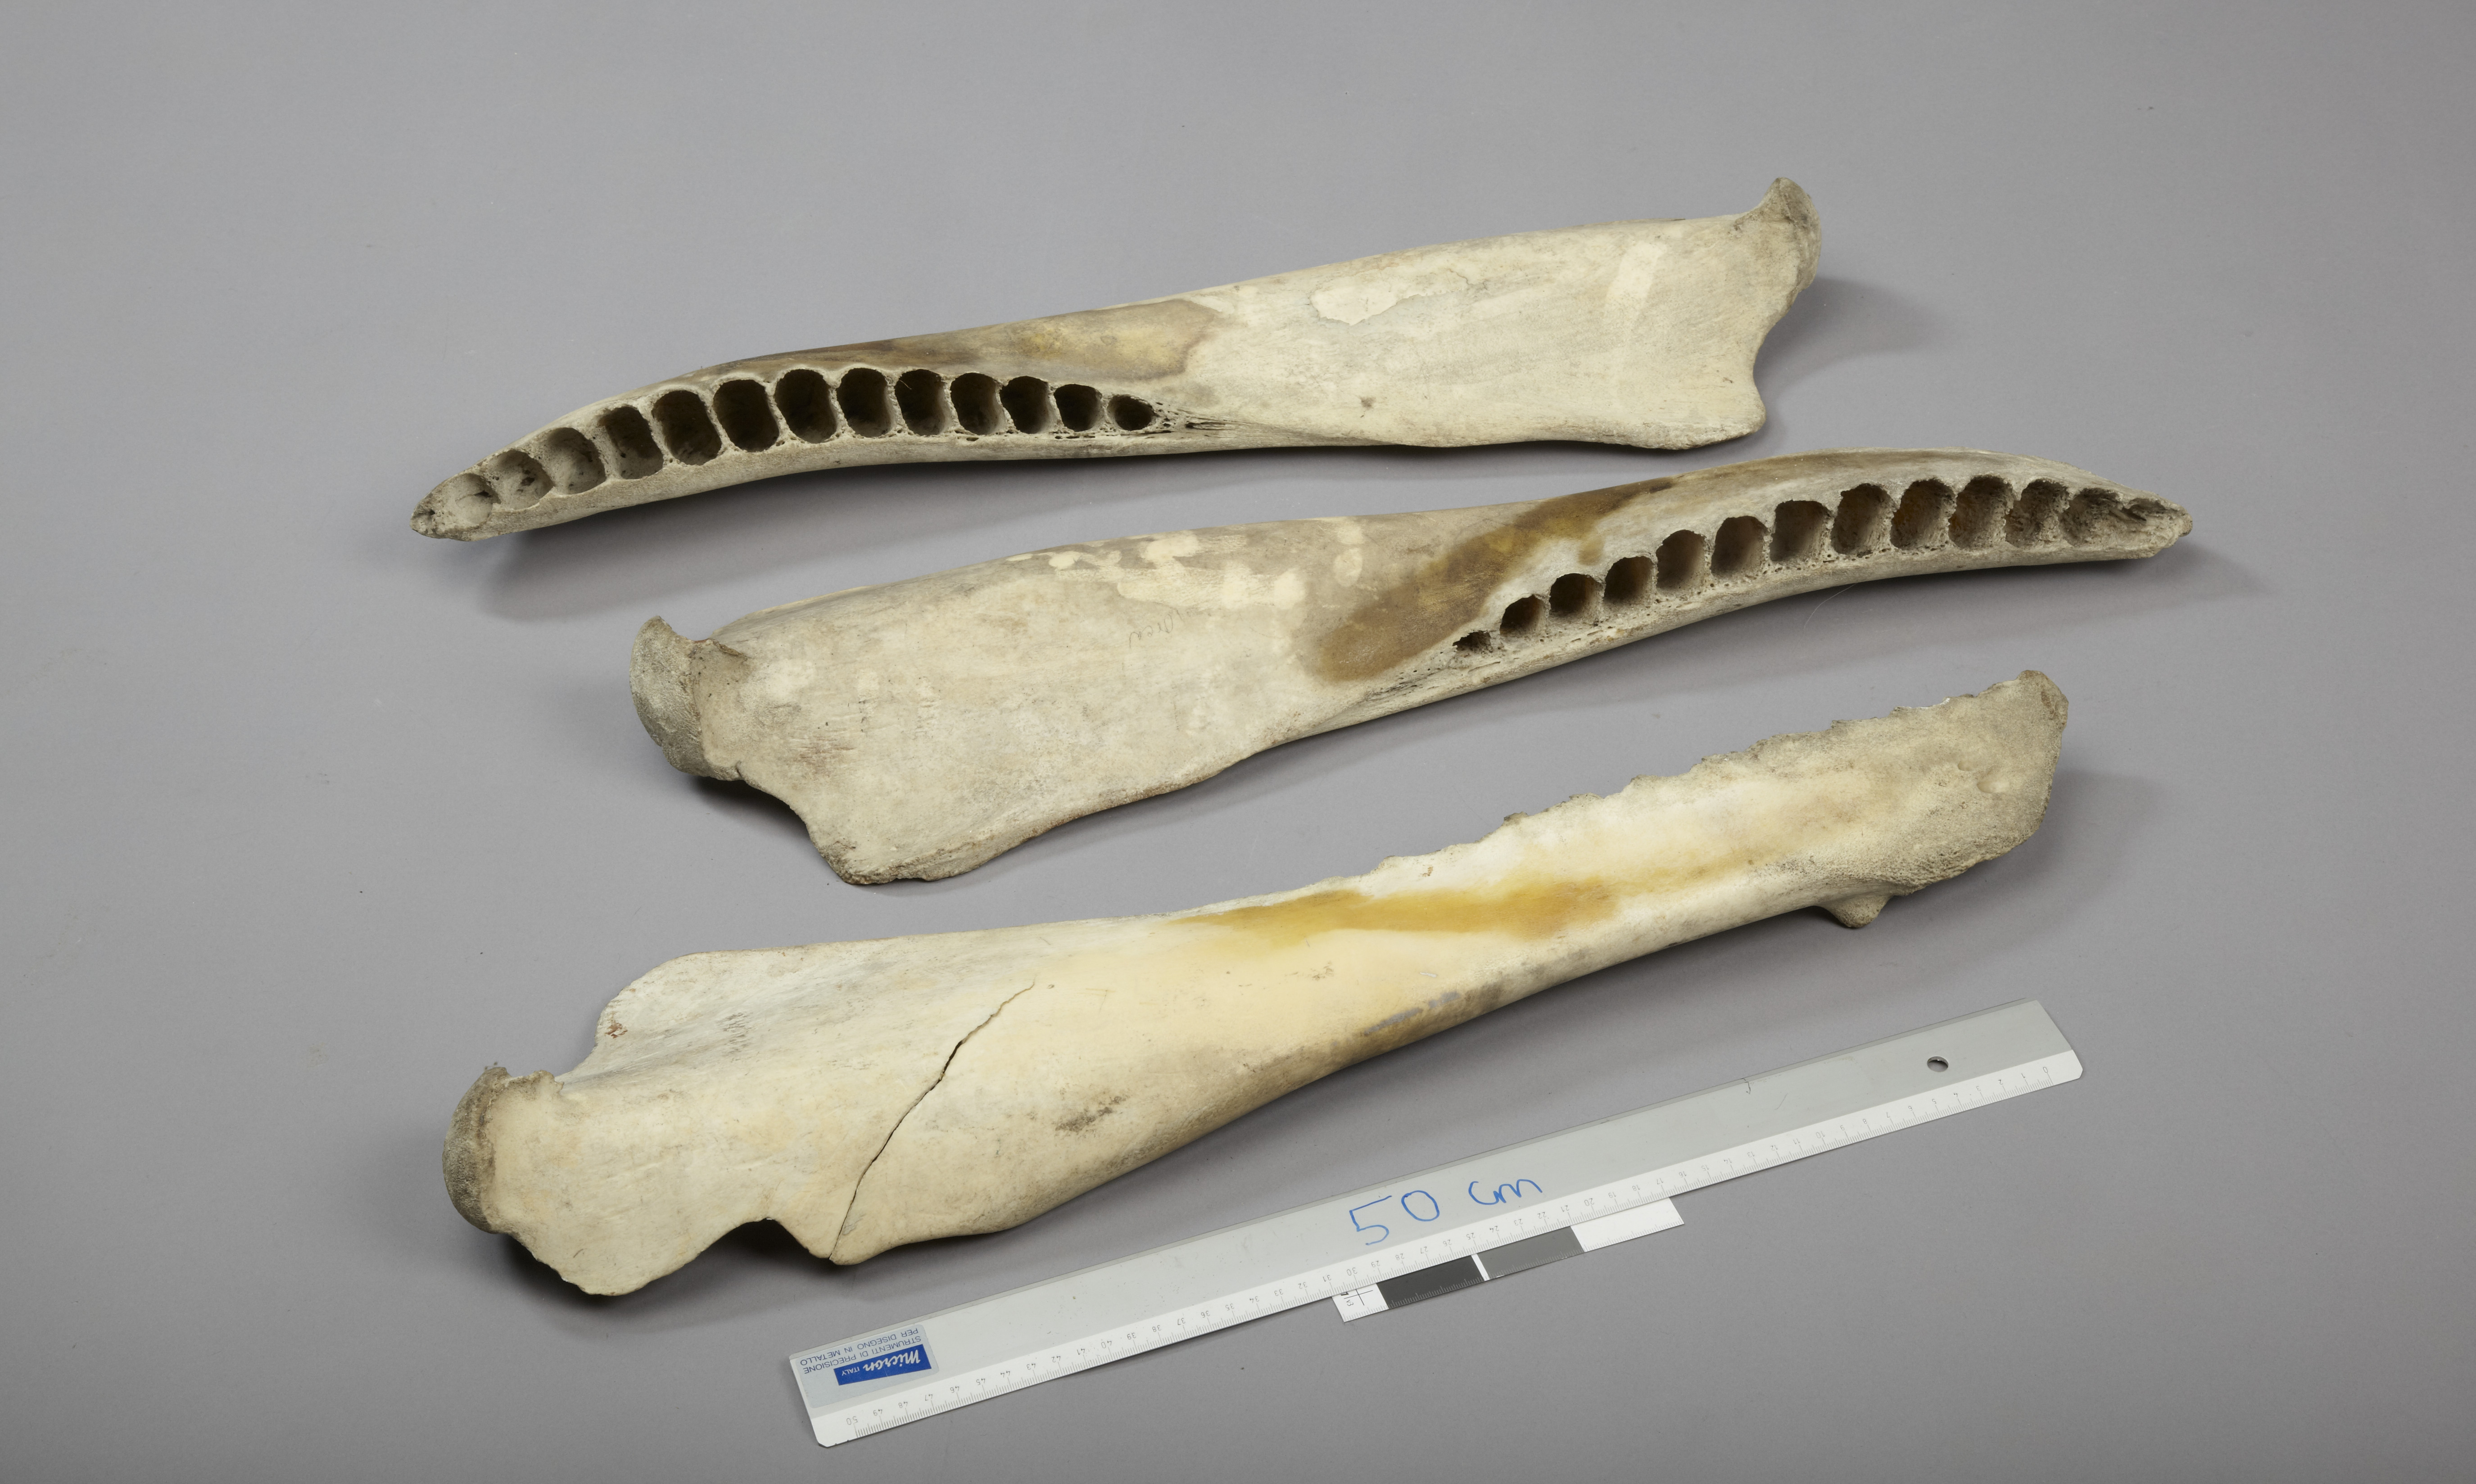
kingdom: Animalia
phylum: Chordata
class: Mammalia
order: Cetacea
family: Delphinidae
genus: Orcinus
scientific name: Orcinus orca
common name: Killer whale
